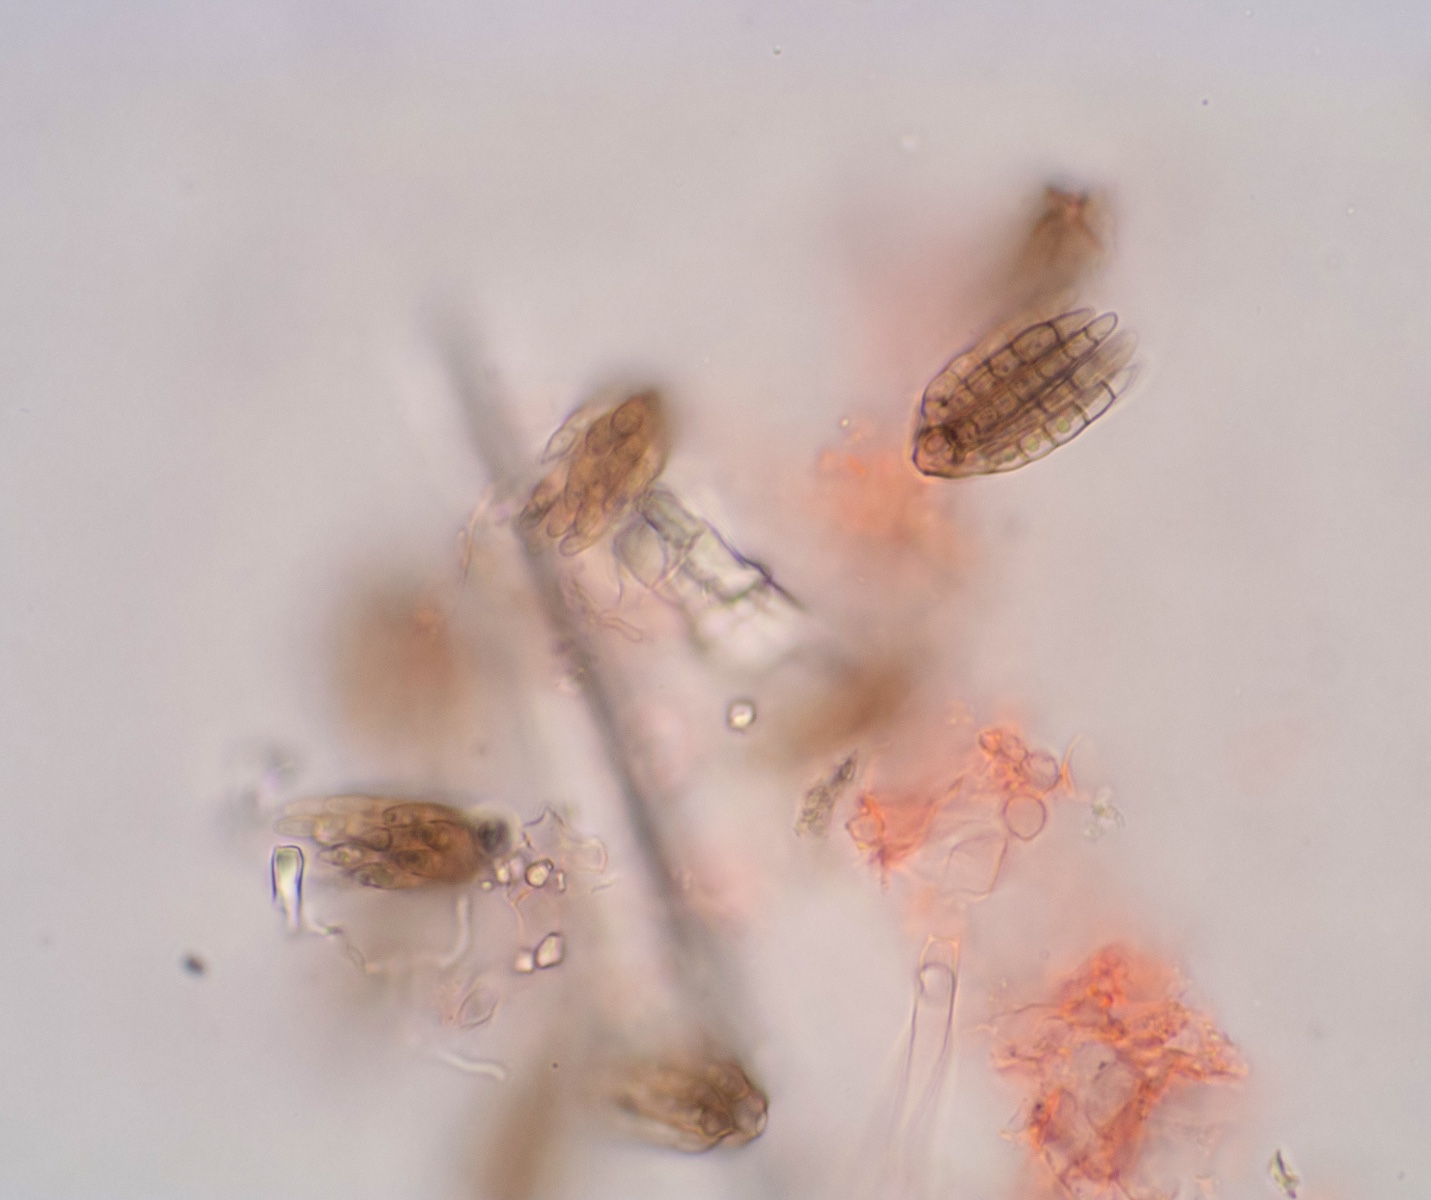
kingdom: Fungi
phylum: Ascomycota
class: Dothideomycetes
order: Pleosporales
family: Cryptocoryneaceae
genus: Cryptocoryneum
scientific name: Cryptocoryneum psammae
